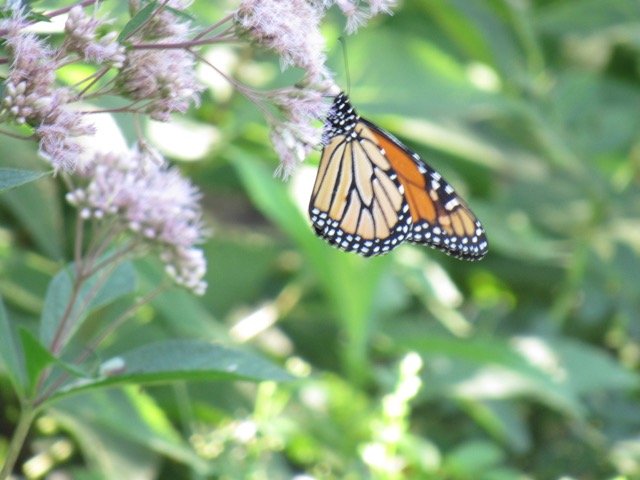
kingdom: Animalia
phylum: Arthropoda
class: Insecta
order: Lepidoptera
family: Nymphalidae
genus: Danaus
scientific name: Danaus plexippus
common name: Monarch
